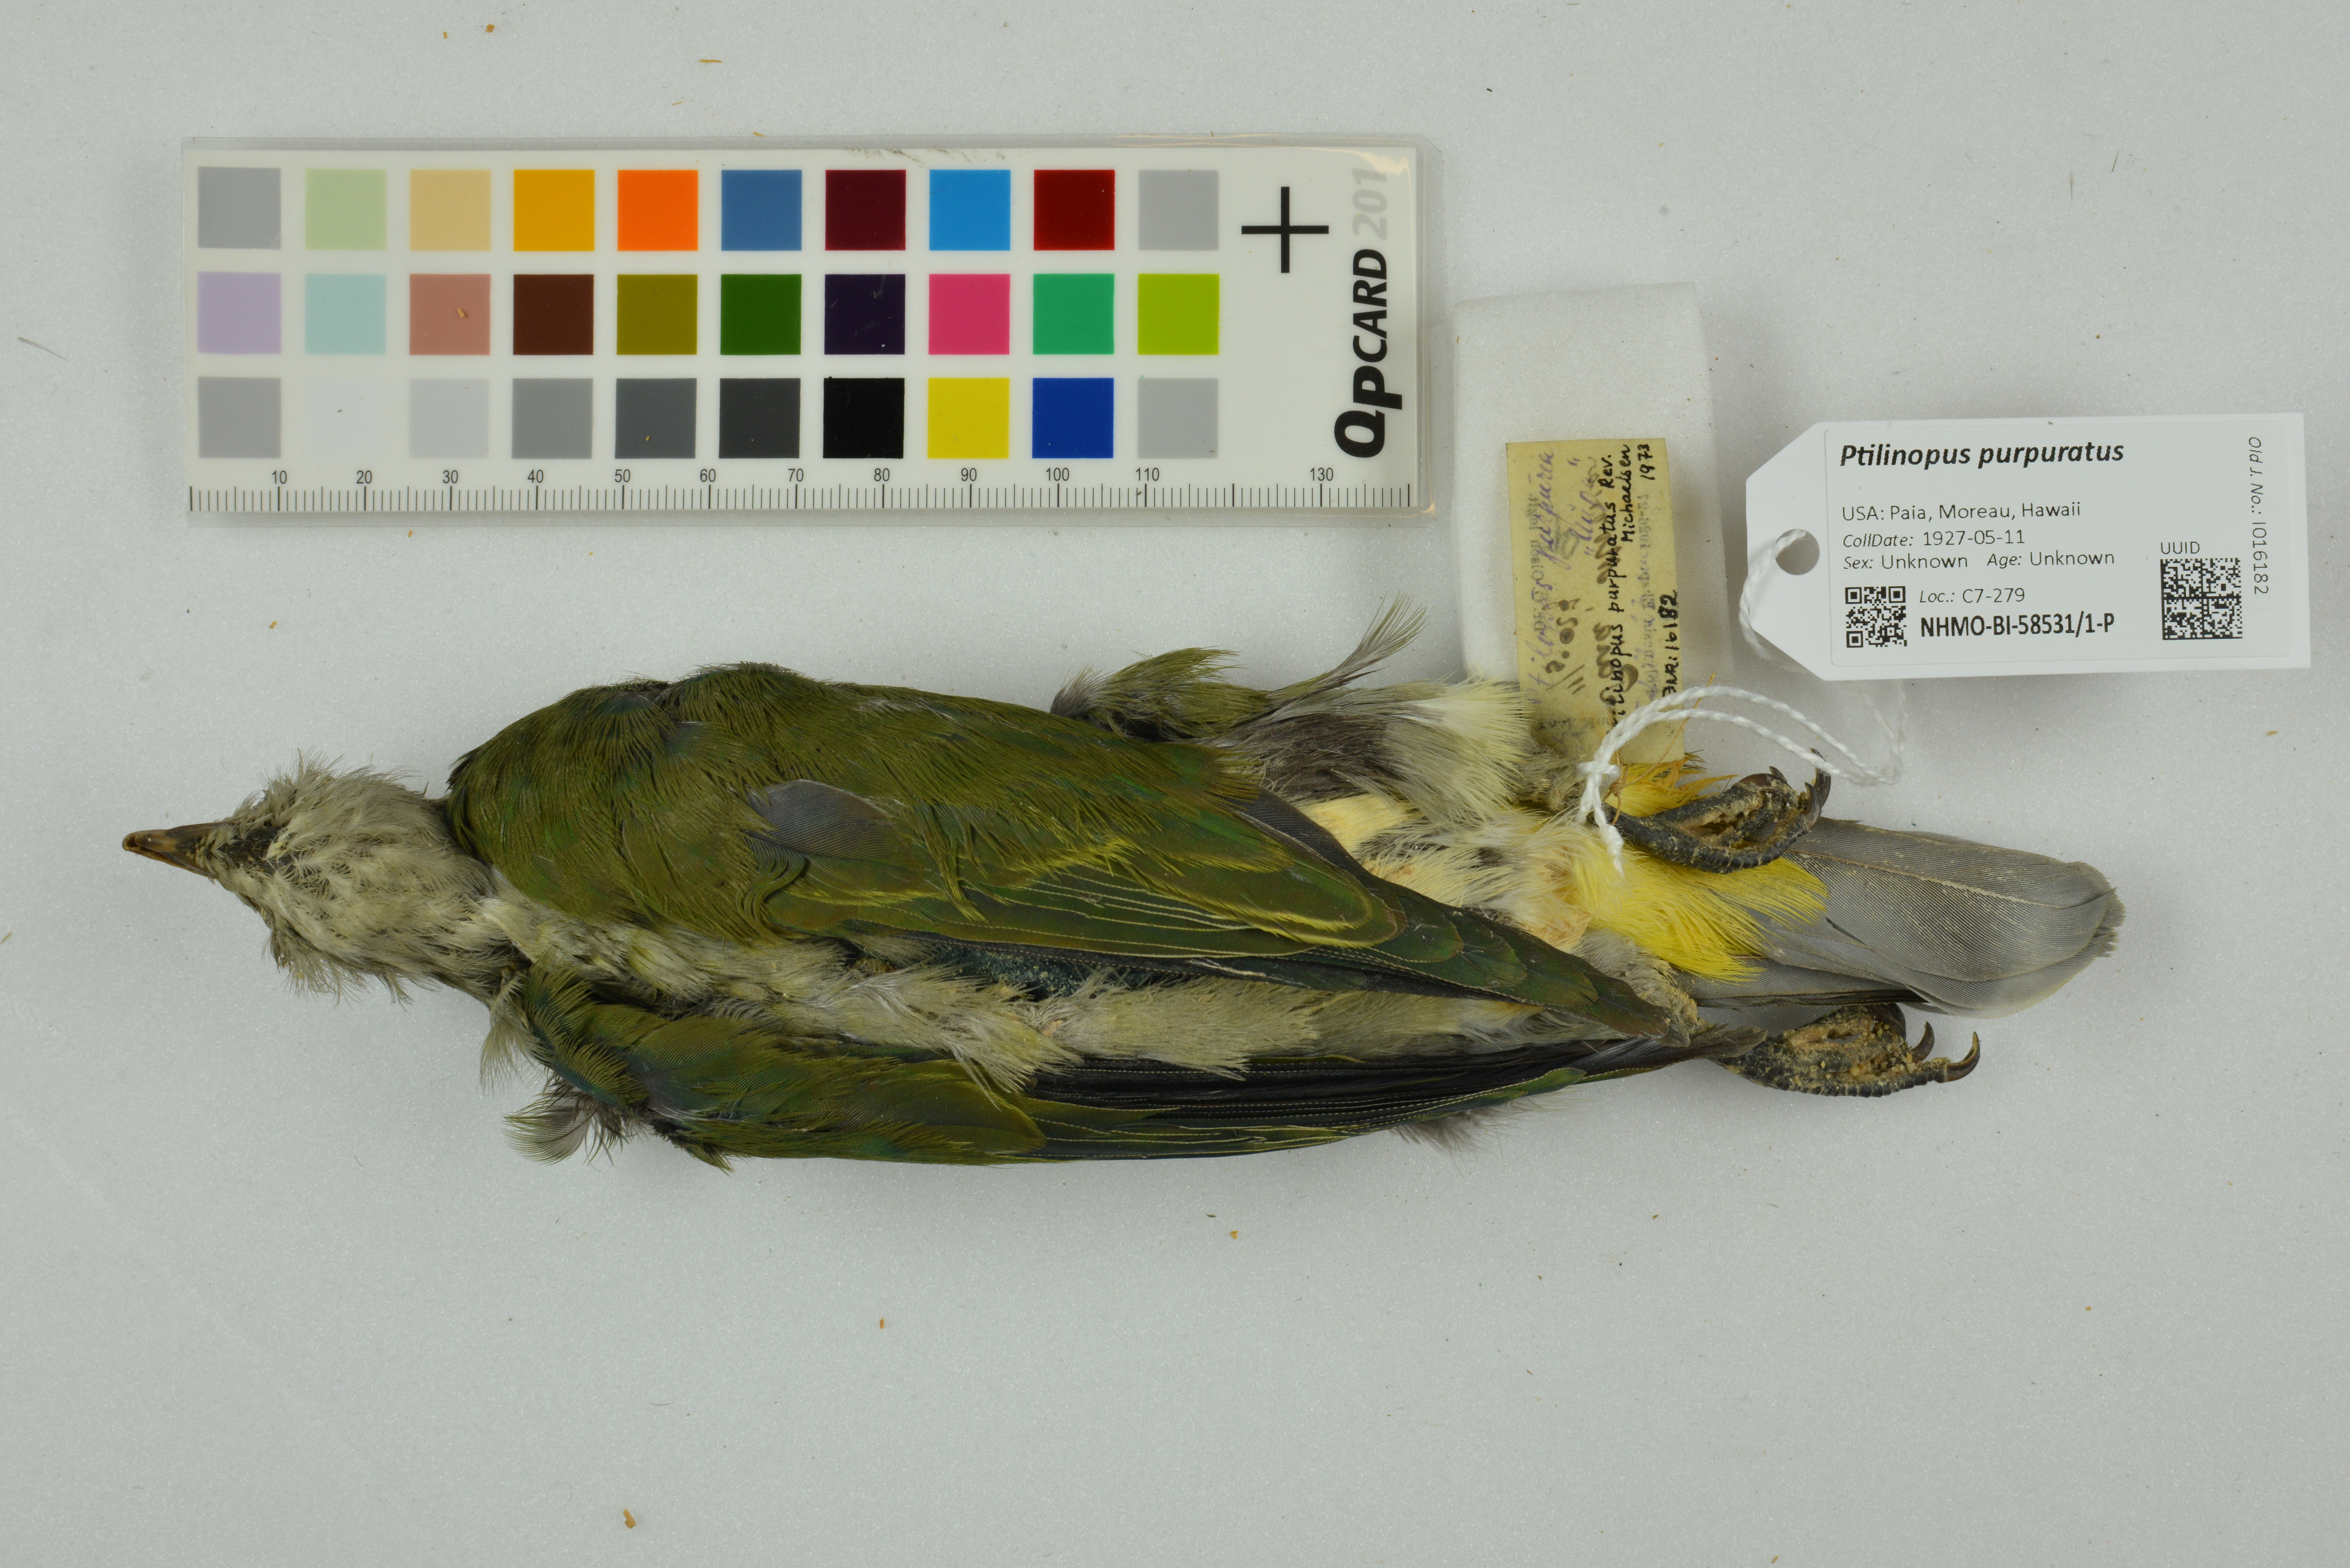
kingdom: Animalia
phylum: Chordata
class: Aves
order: Columbiformes
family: Columbidae
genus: Ptilinopus
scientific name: Ptilinopus purpuratus
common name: Grey-green fruit dove
